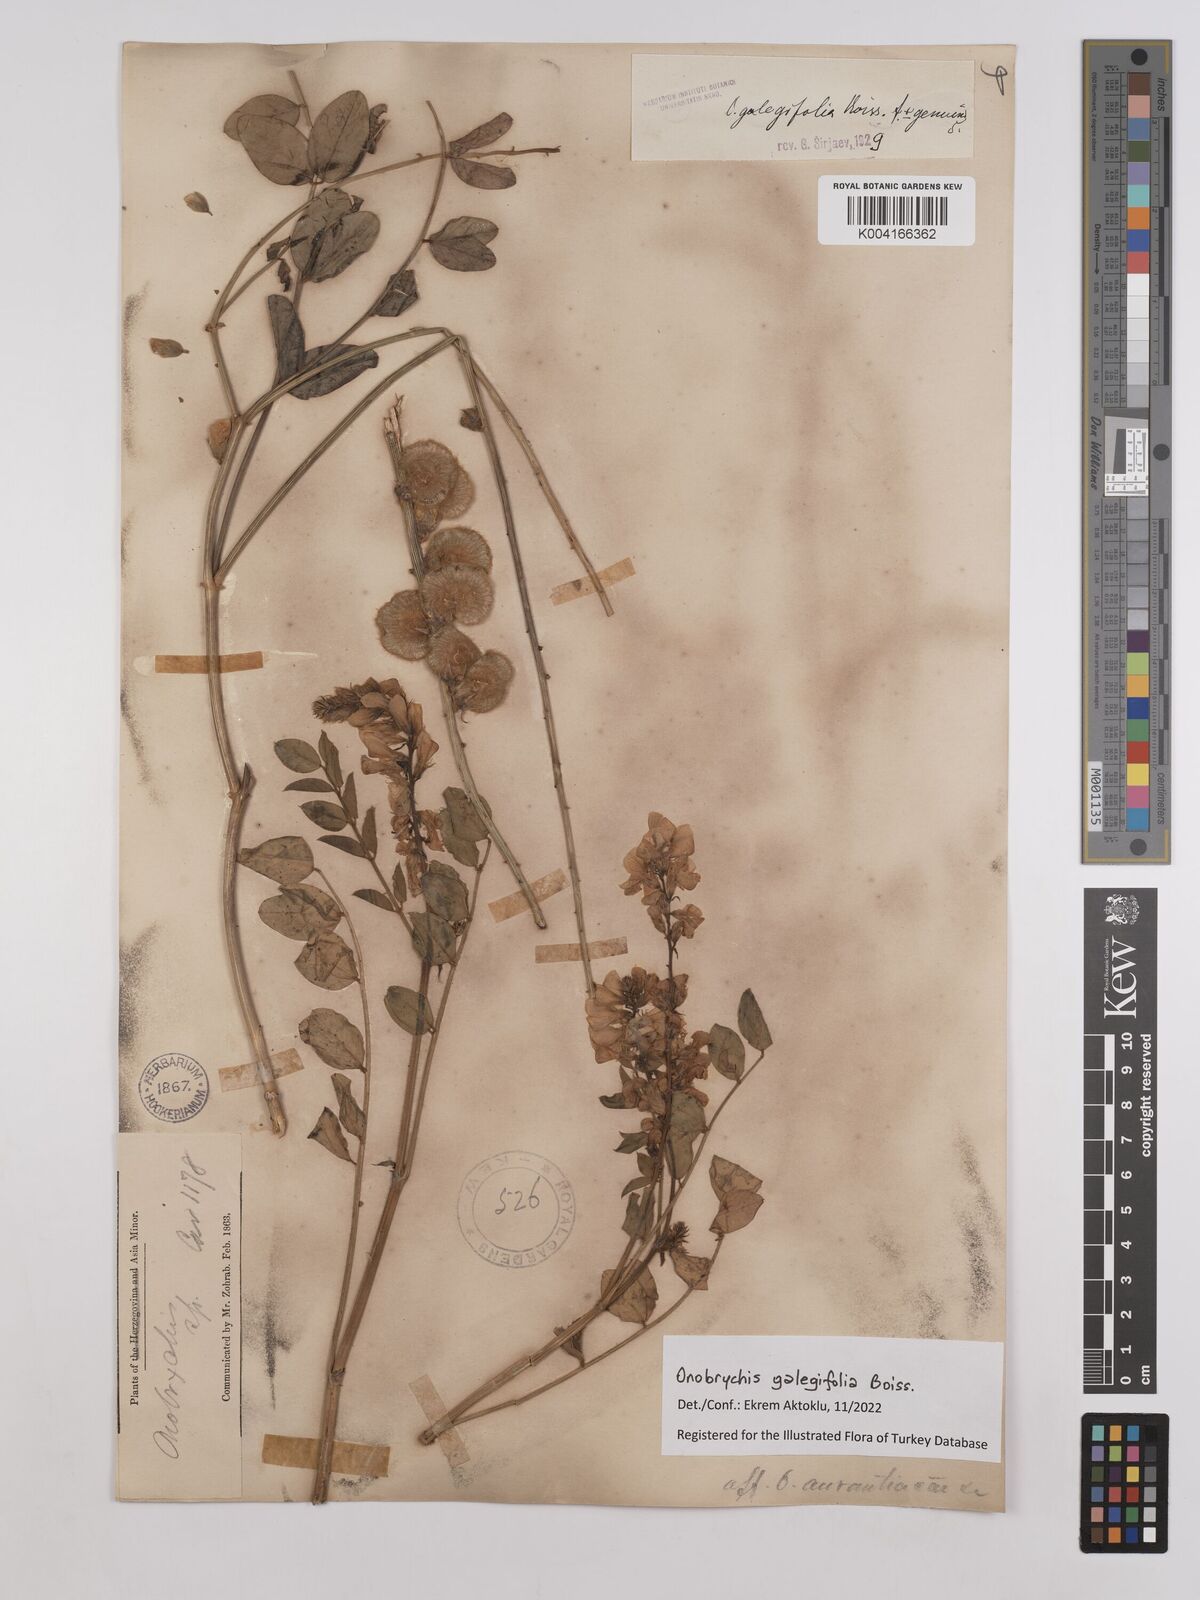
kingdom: Plantae
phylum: Tracheophyta
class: Magnoliopsida
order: Fabales
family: Fabaceae
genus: Onobrychis
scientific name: Onobrychis galegifolia
